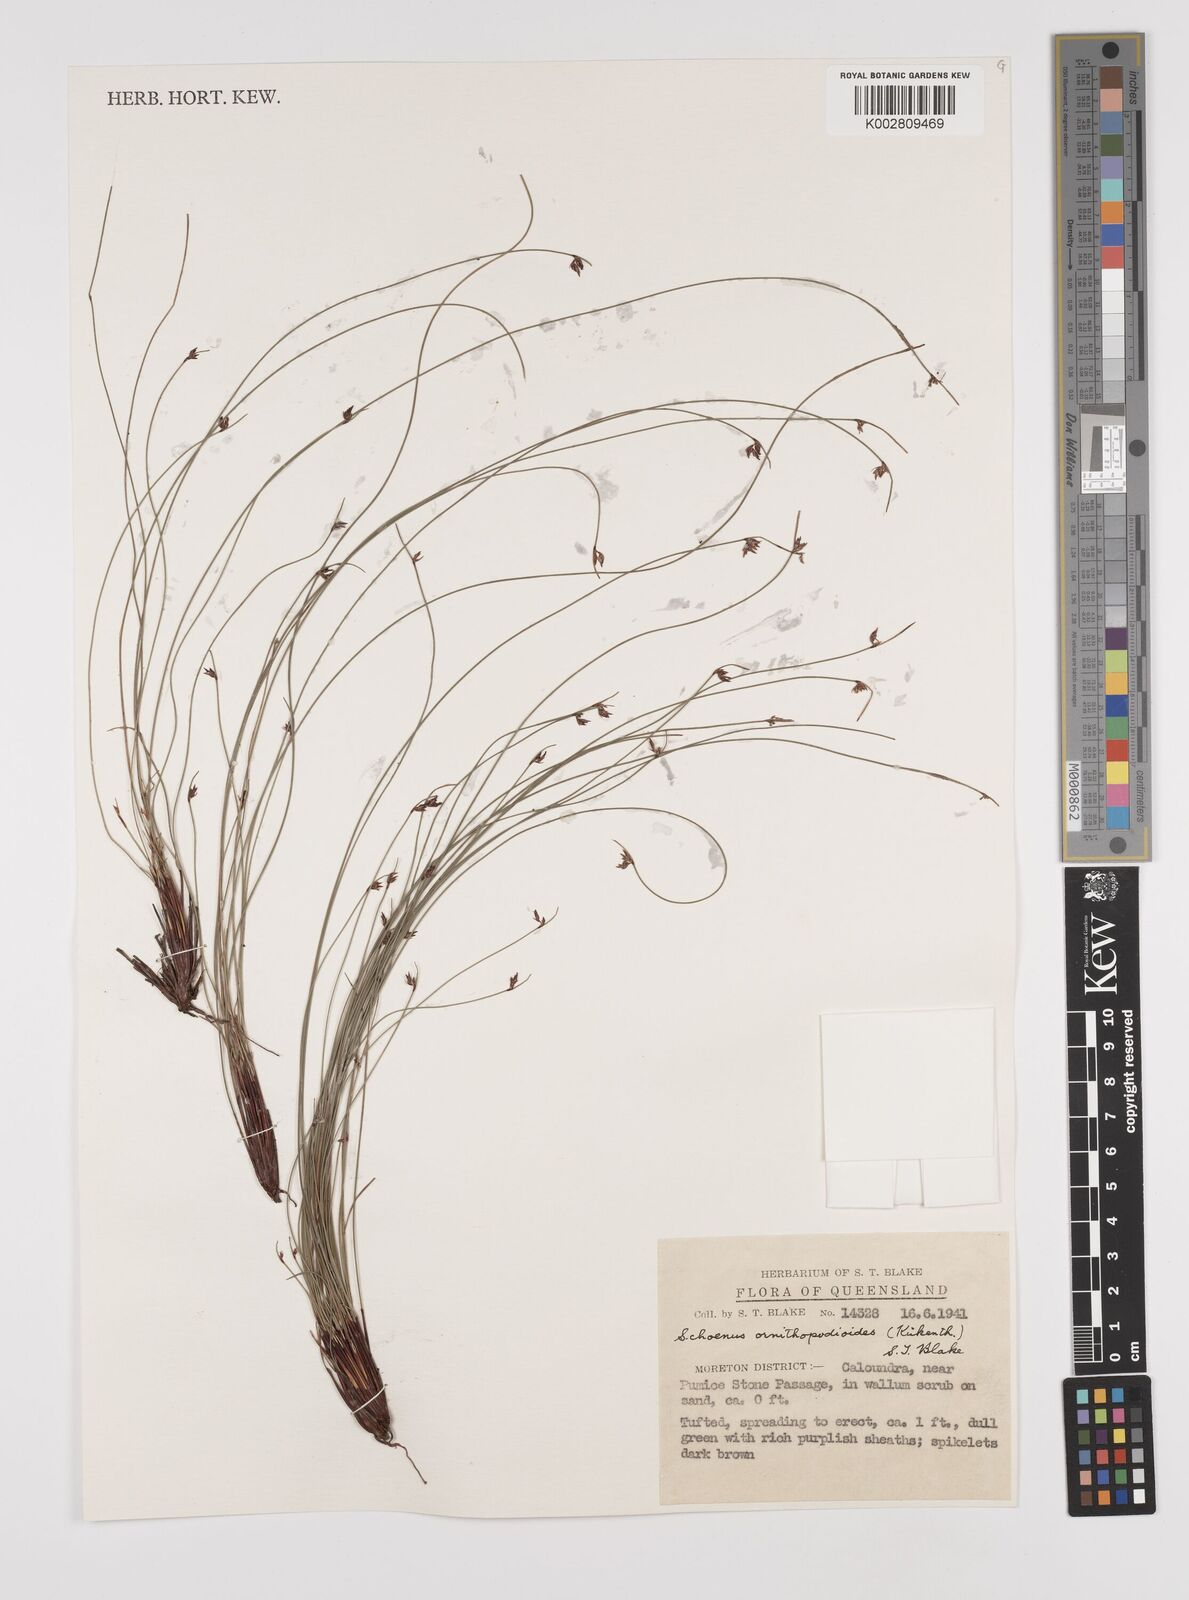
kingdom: Plantae
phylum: Tracheophyta
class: Liliopsida
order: Poales
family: Cyperaceae
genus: Schoenus
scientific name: Schoenus ornithopodioides
